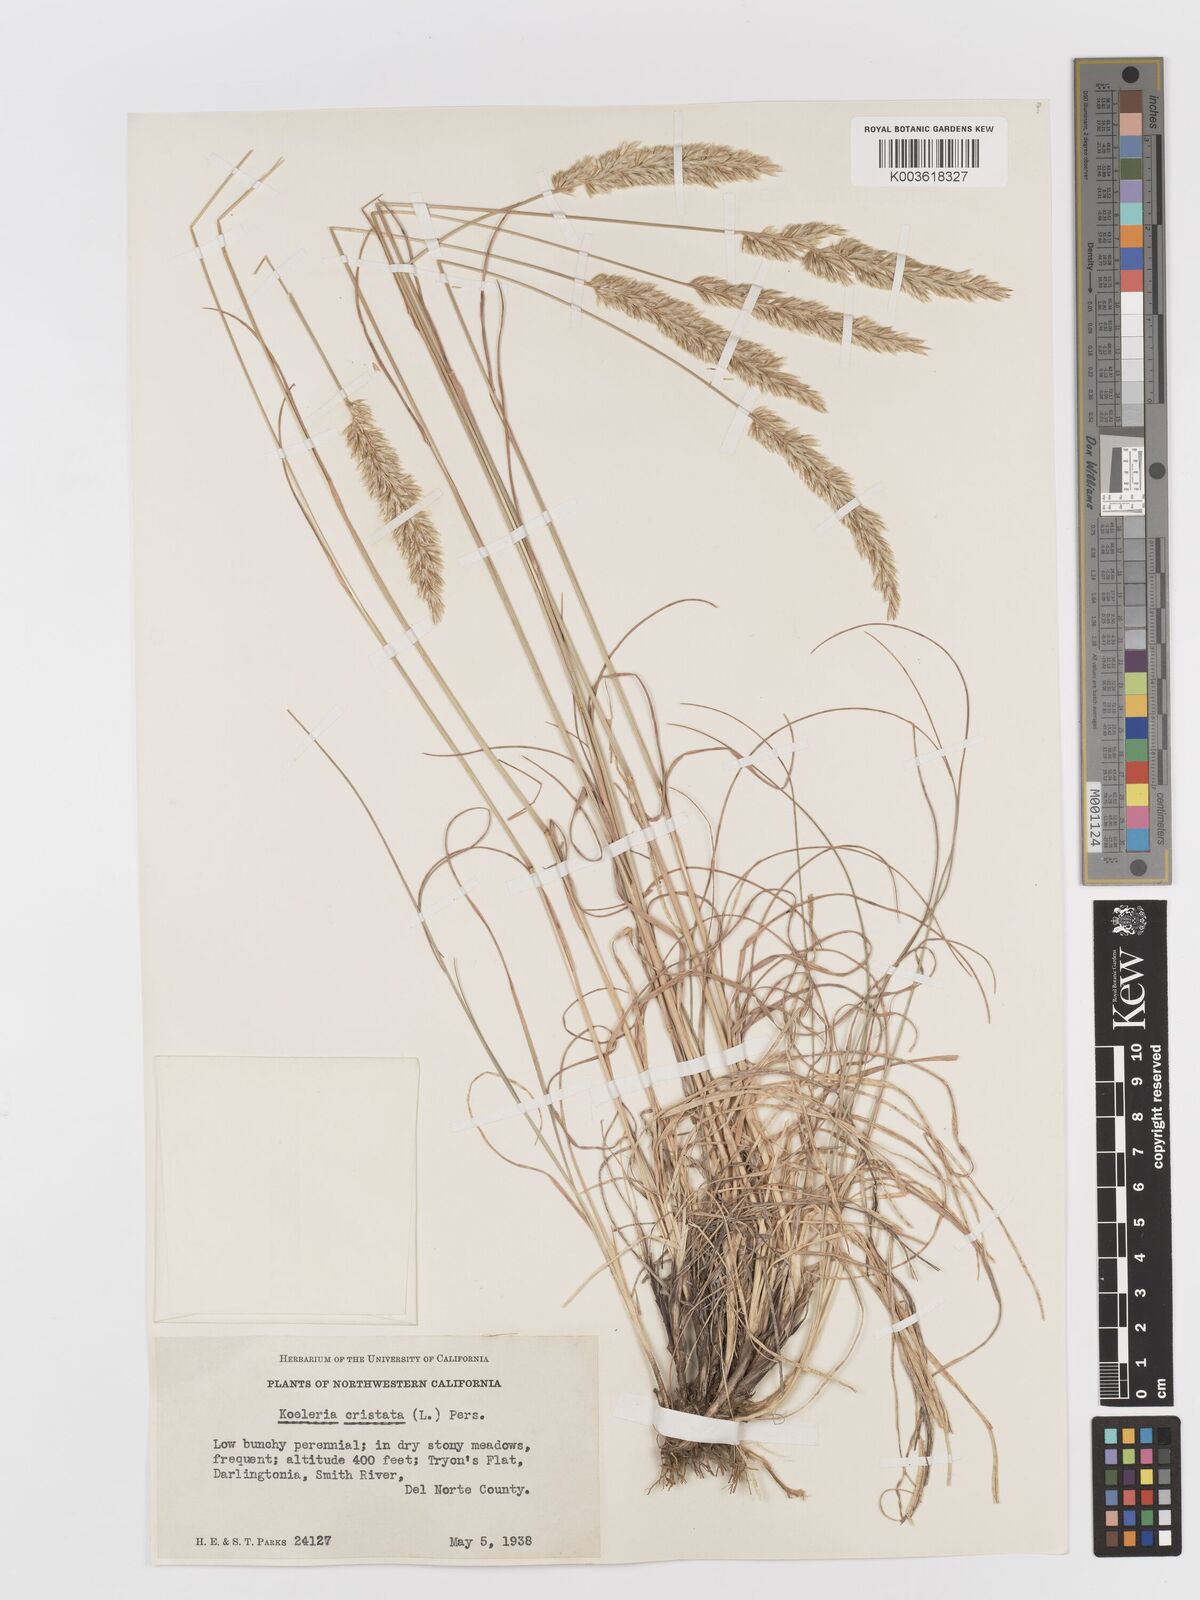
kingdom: Plantae
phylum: Tracheophyta
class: Liliopsida
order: Poales
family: Poaceae
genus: Koeleria
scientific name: Koeleria
